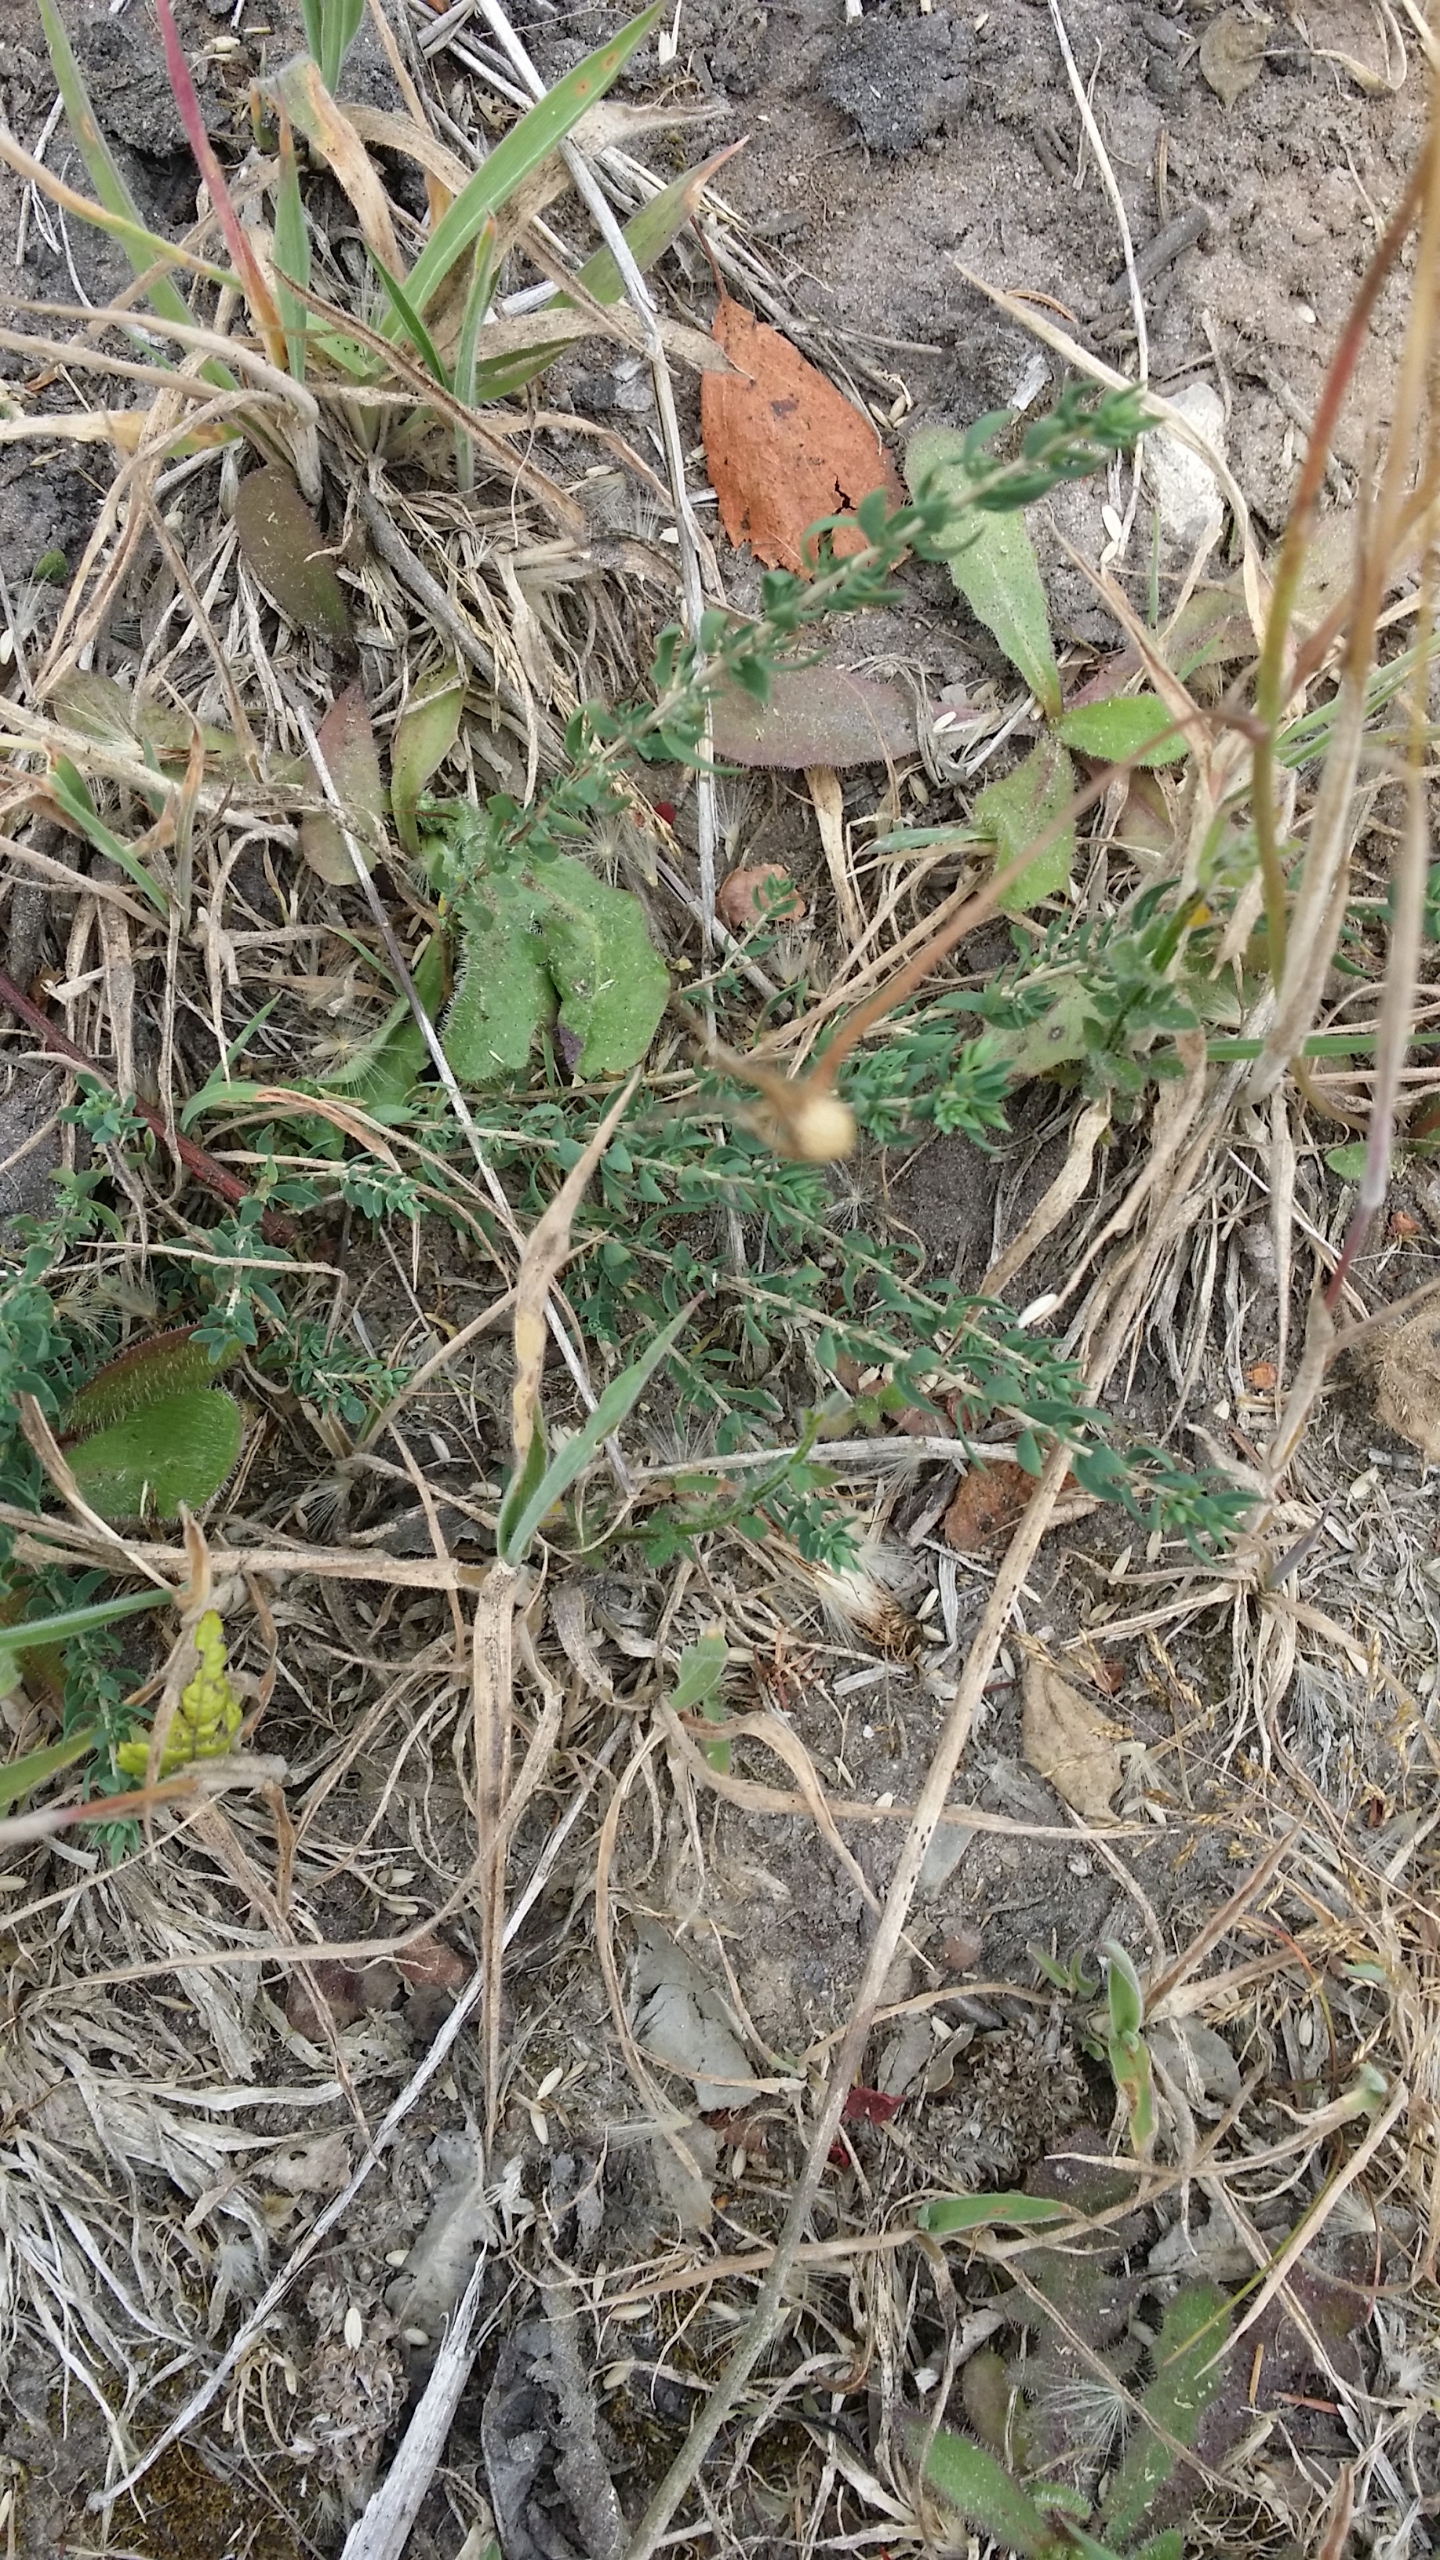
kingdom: Plantae
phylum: Tracheophyta
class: Magnoliopsida
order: Fabales
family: Fabaceae
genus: Genista
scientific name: Genista anglica
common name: Engelsk visse
